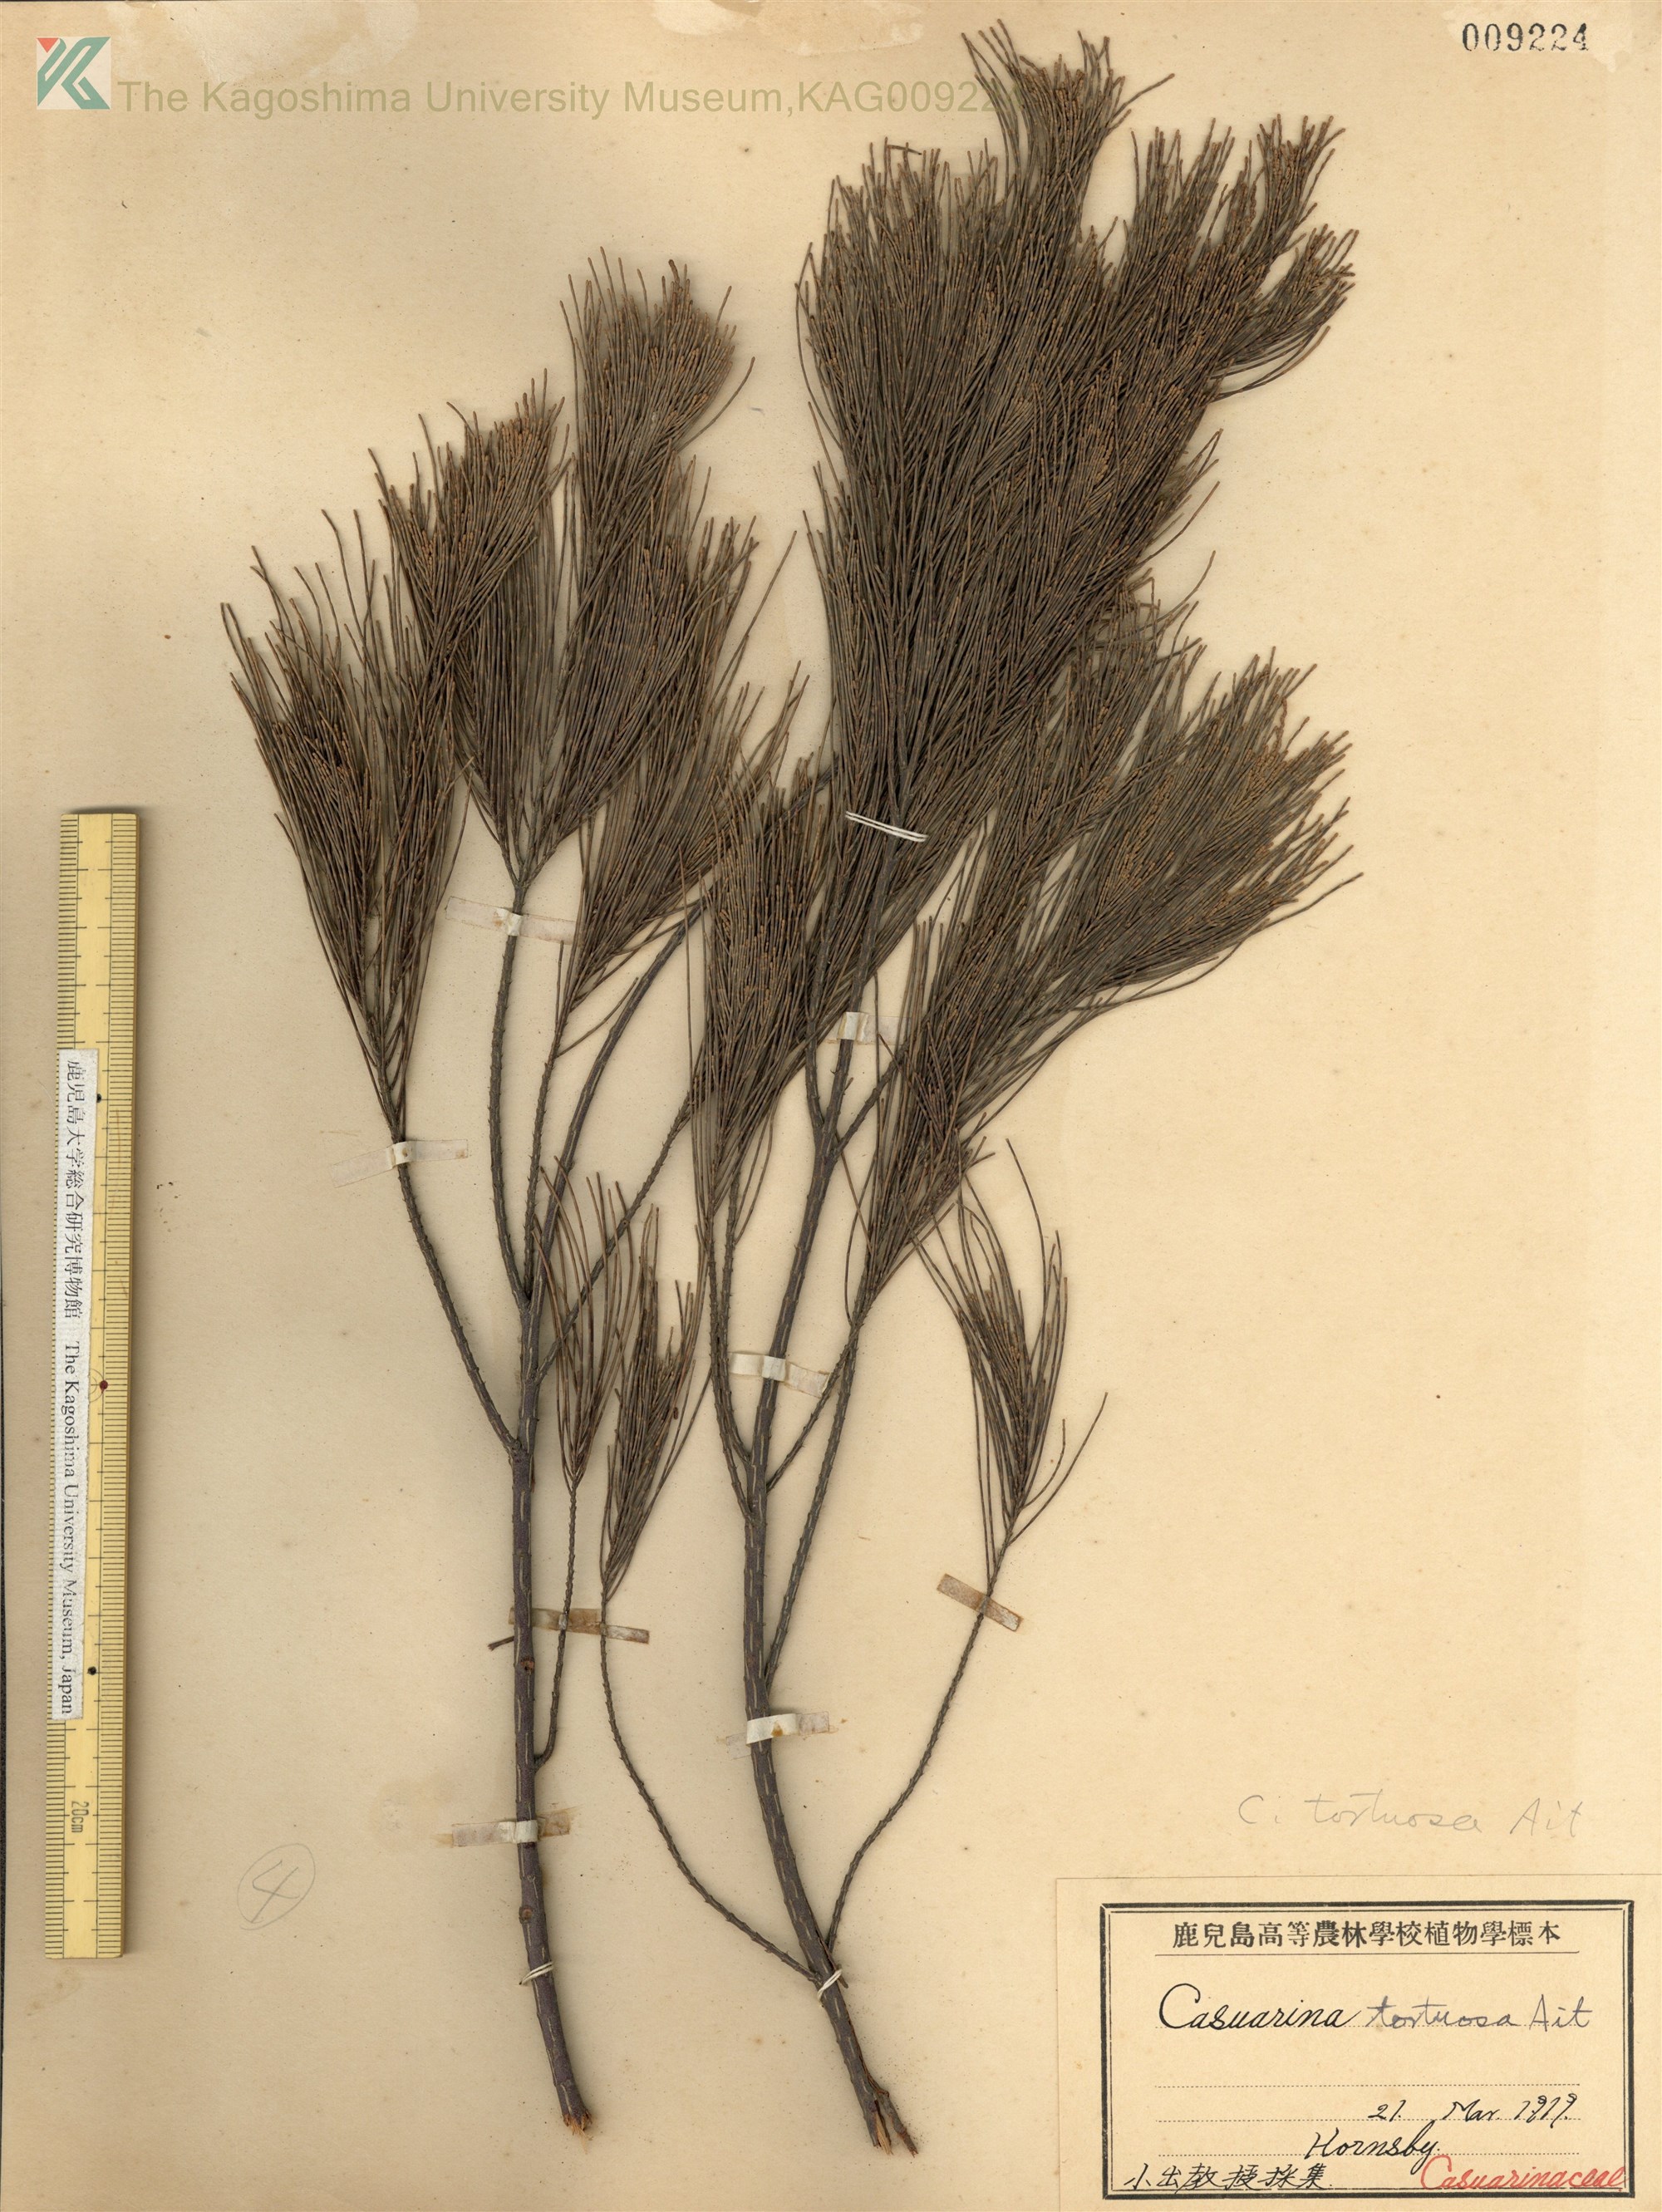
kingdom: Plantae
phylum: Tracheophyta
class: Magnoliopsida
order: Fagales
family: Casuarinaceae
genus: Allocasuarina
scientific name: Allocasuarina verticillata
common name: Drooping she-oak
